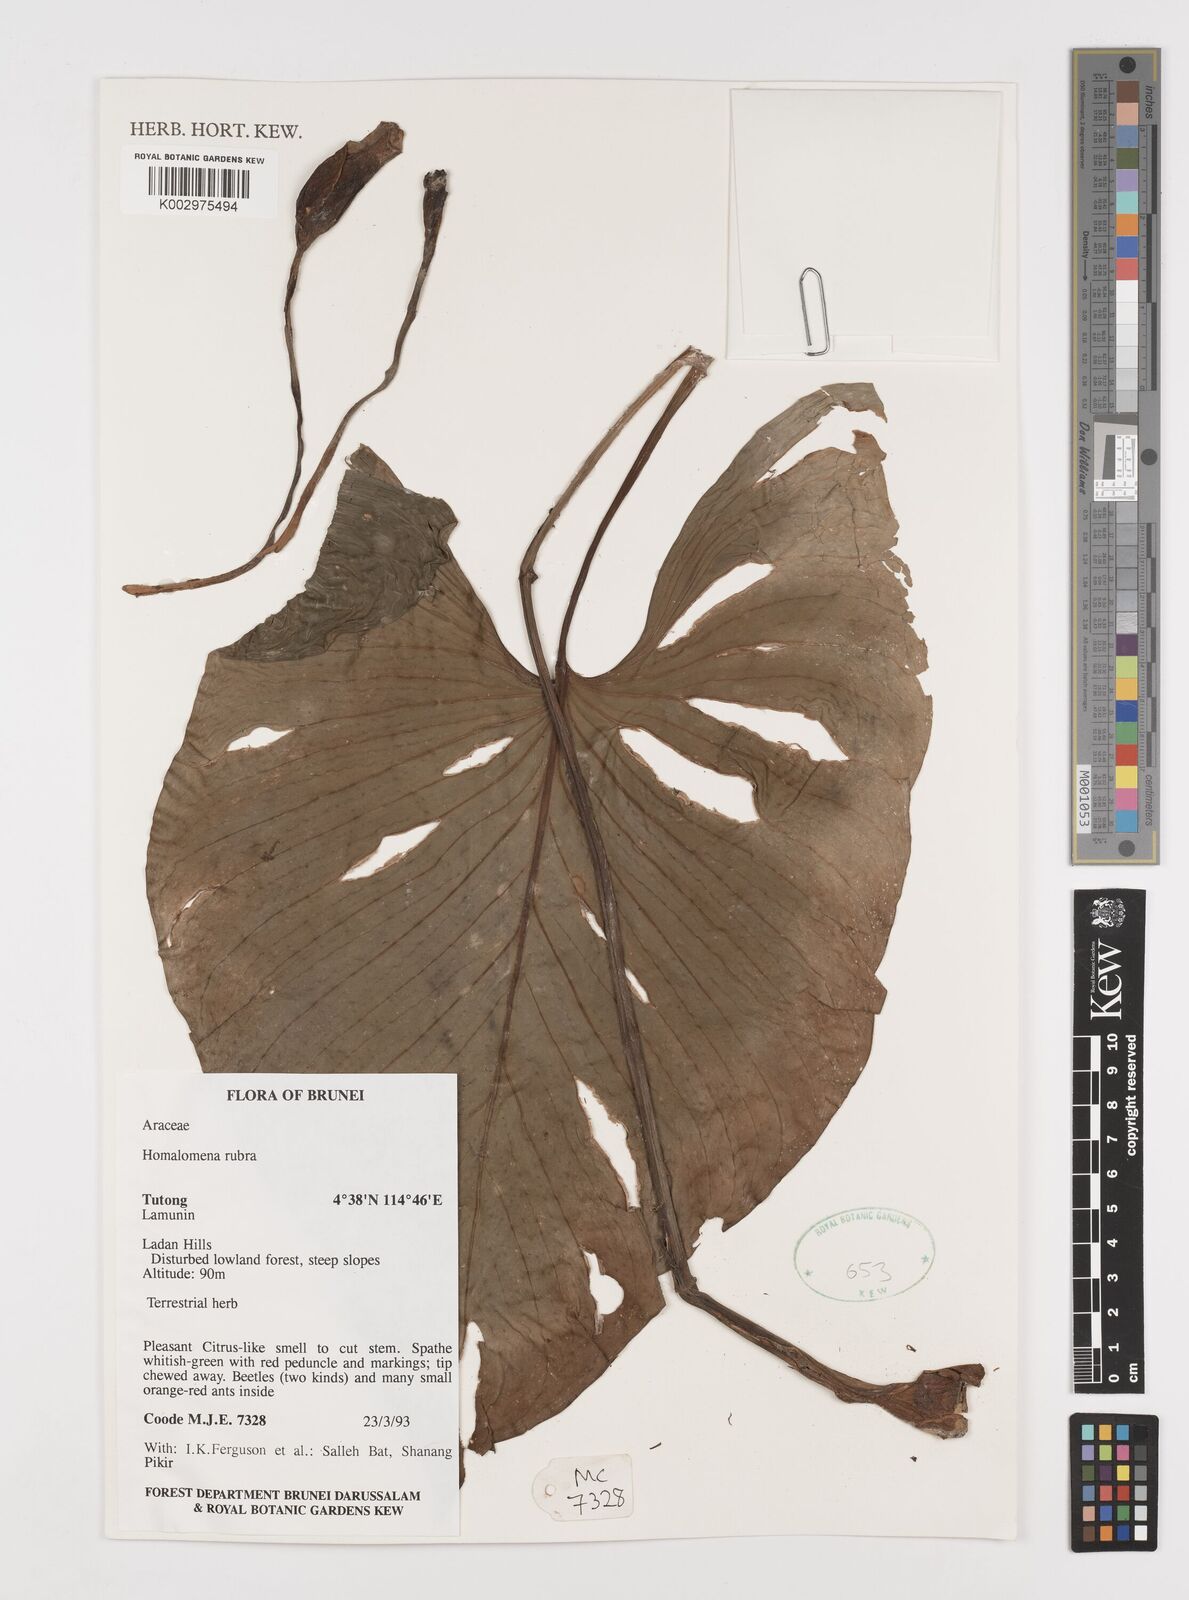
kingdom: Plantae
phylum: Tracheophyta
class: Liliopsida
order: Alismatales
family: Araceae
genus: Homalomena
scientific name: Homalomena
